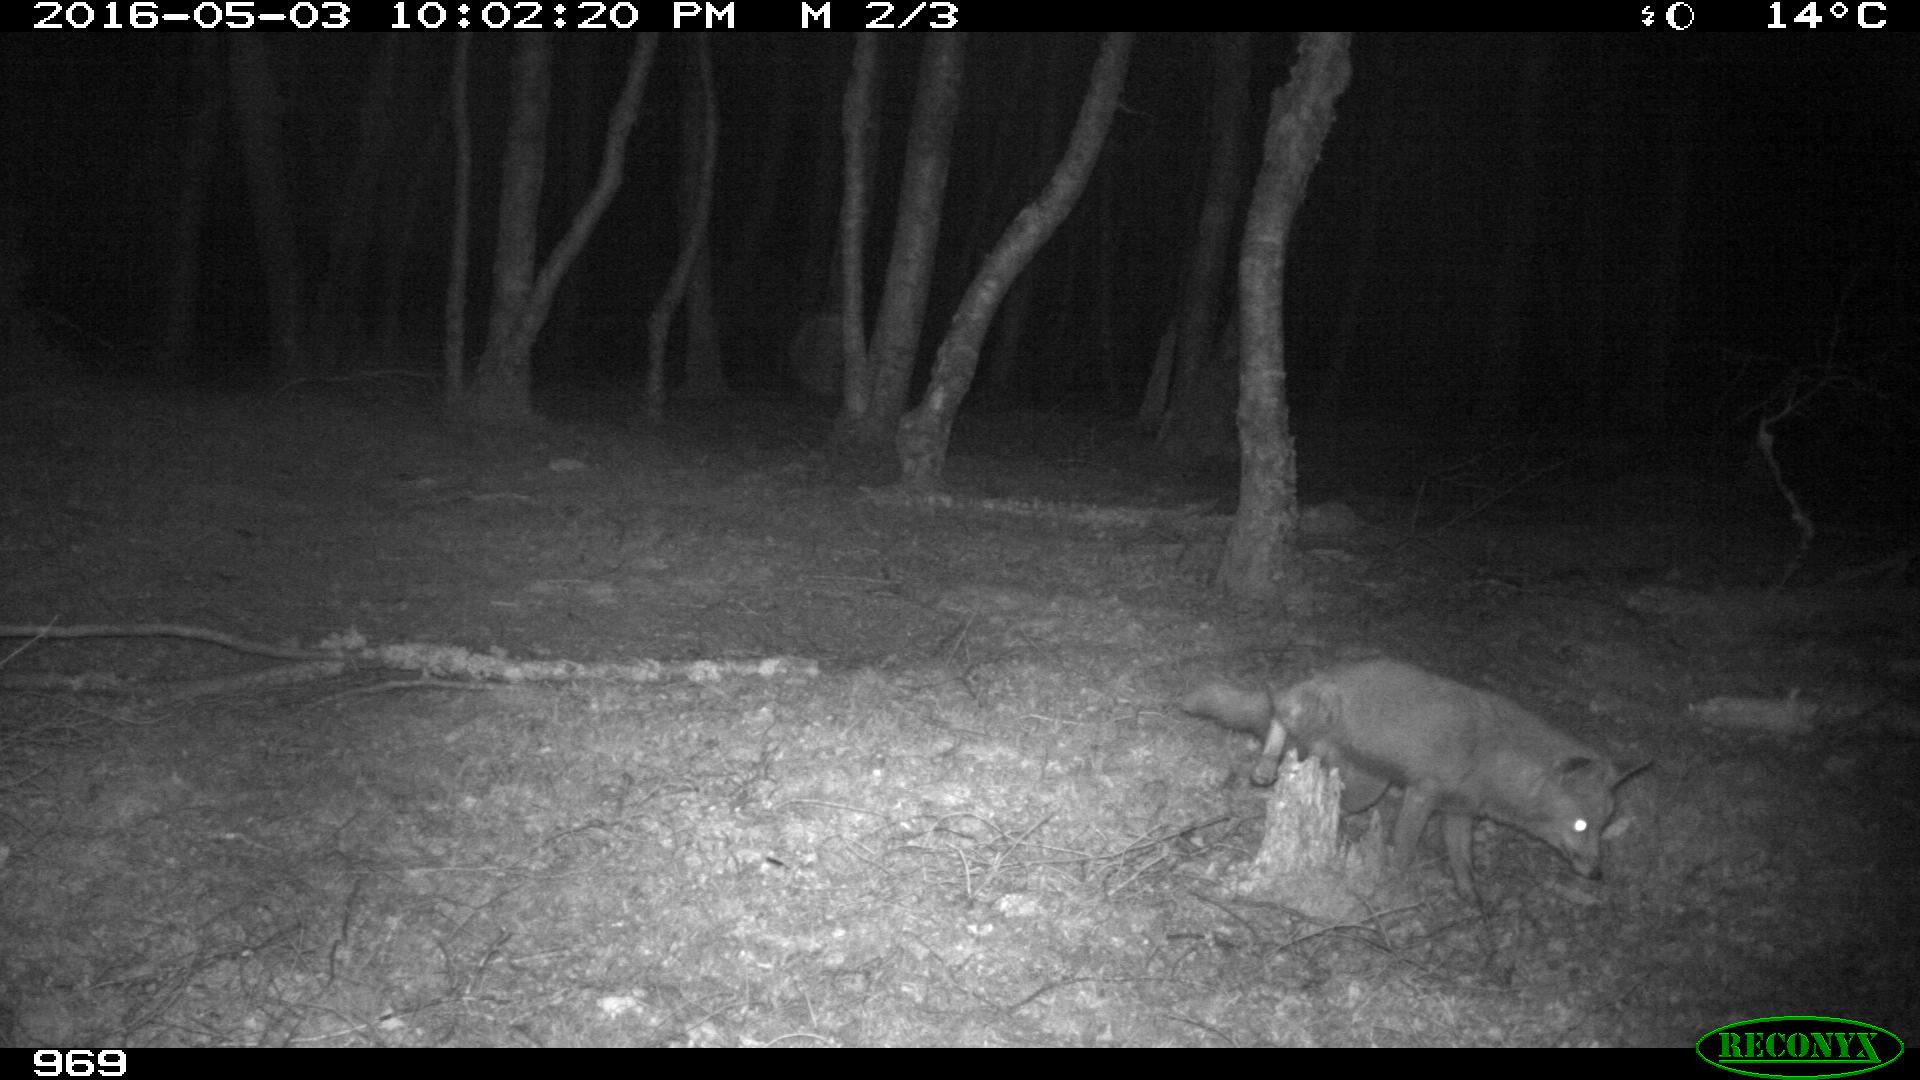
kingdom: Animalia
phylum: Chordata
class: Mammalia
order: Carnivora
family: Canidae
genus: Vulpes
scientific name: Vulpes vulpes
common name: Red fox
